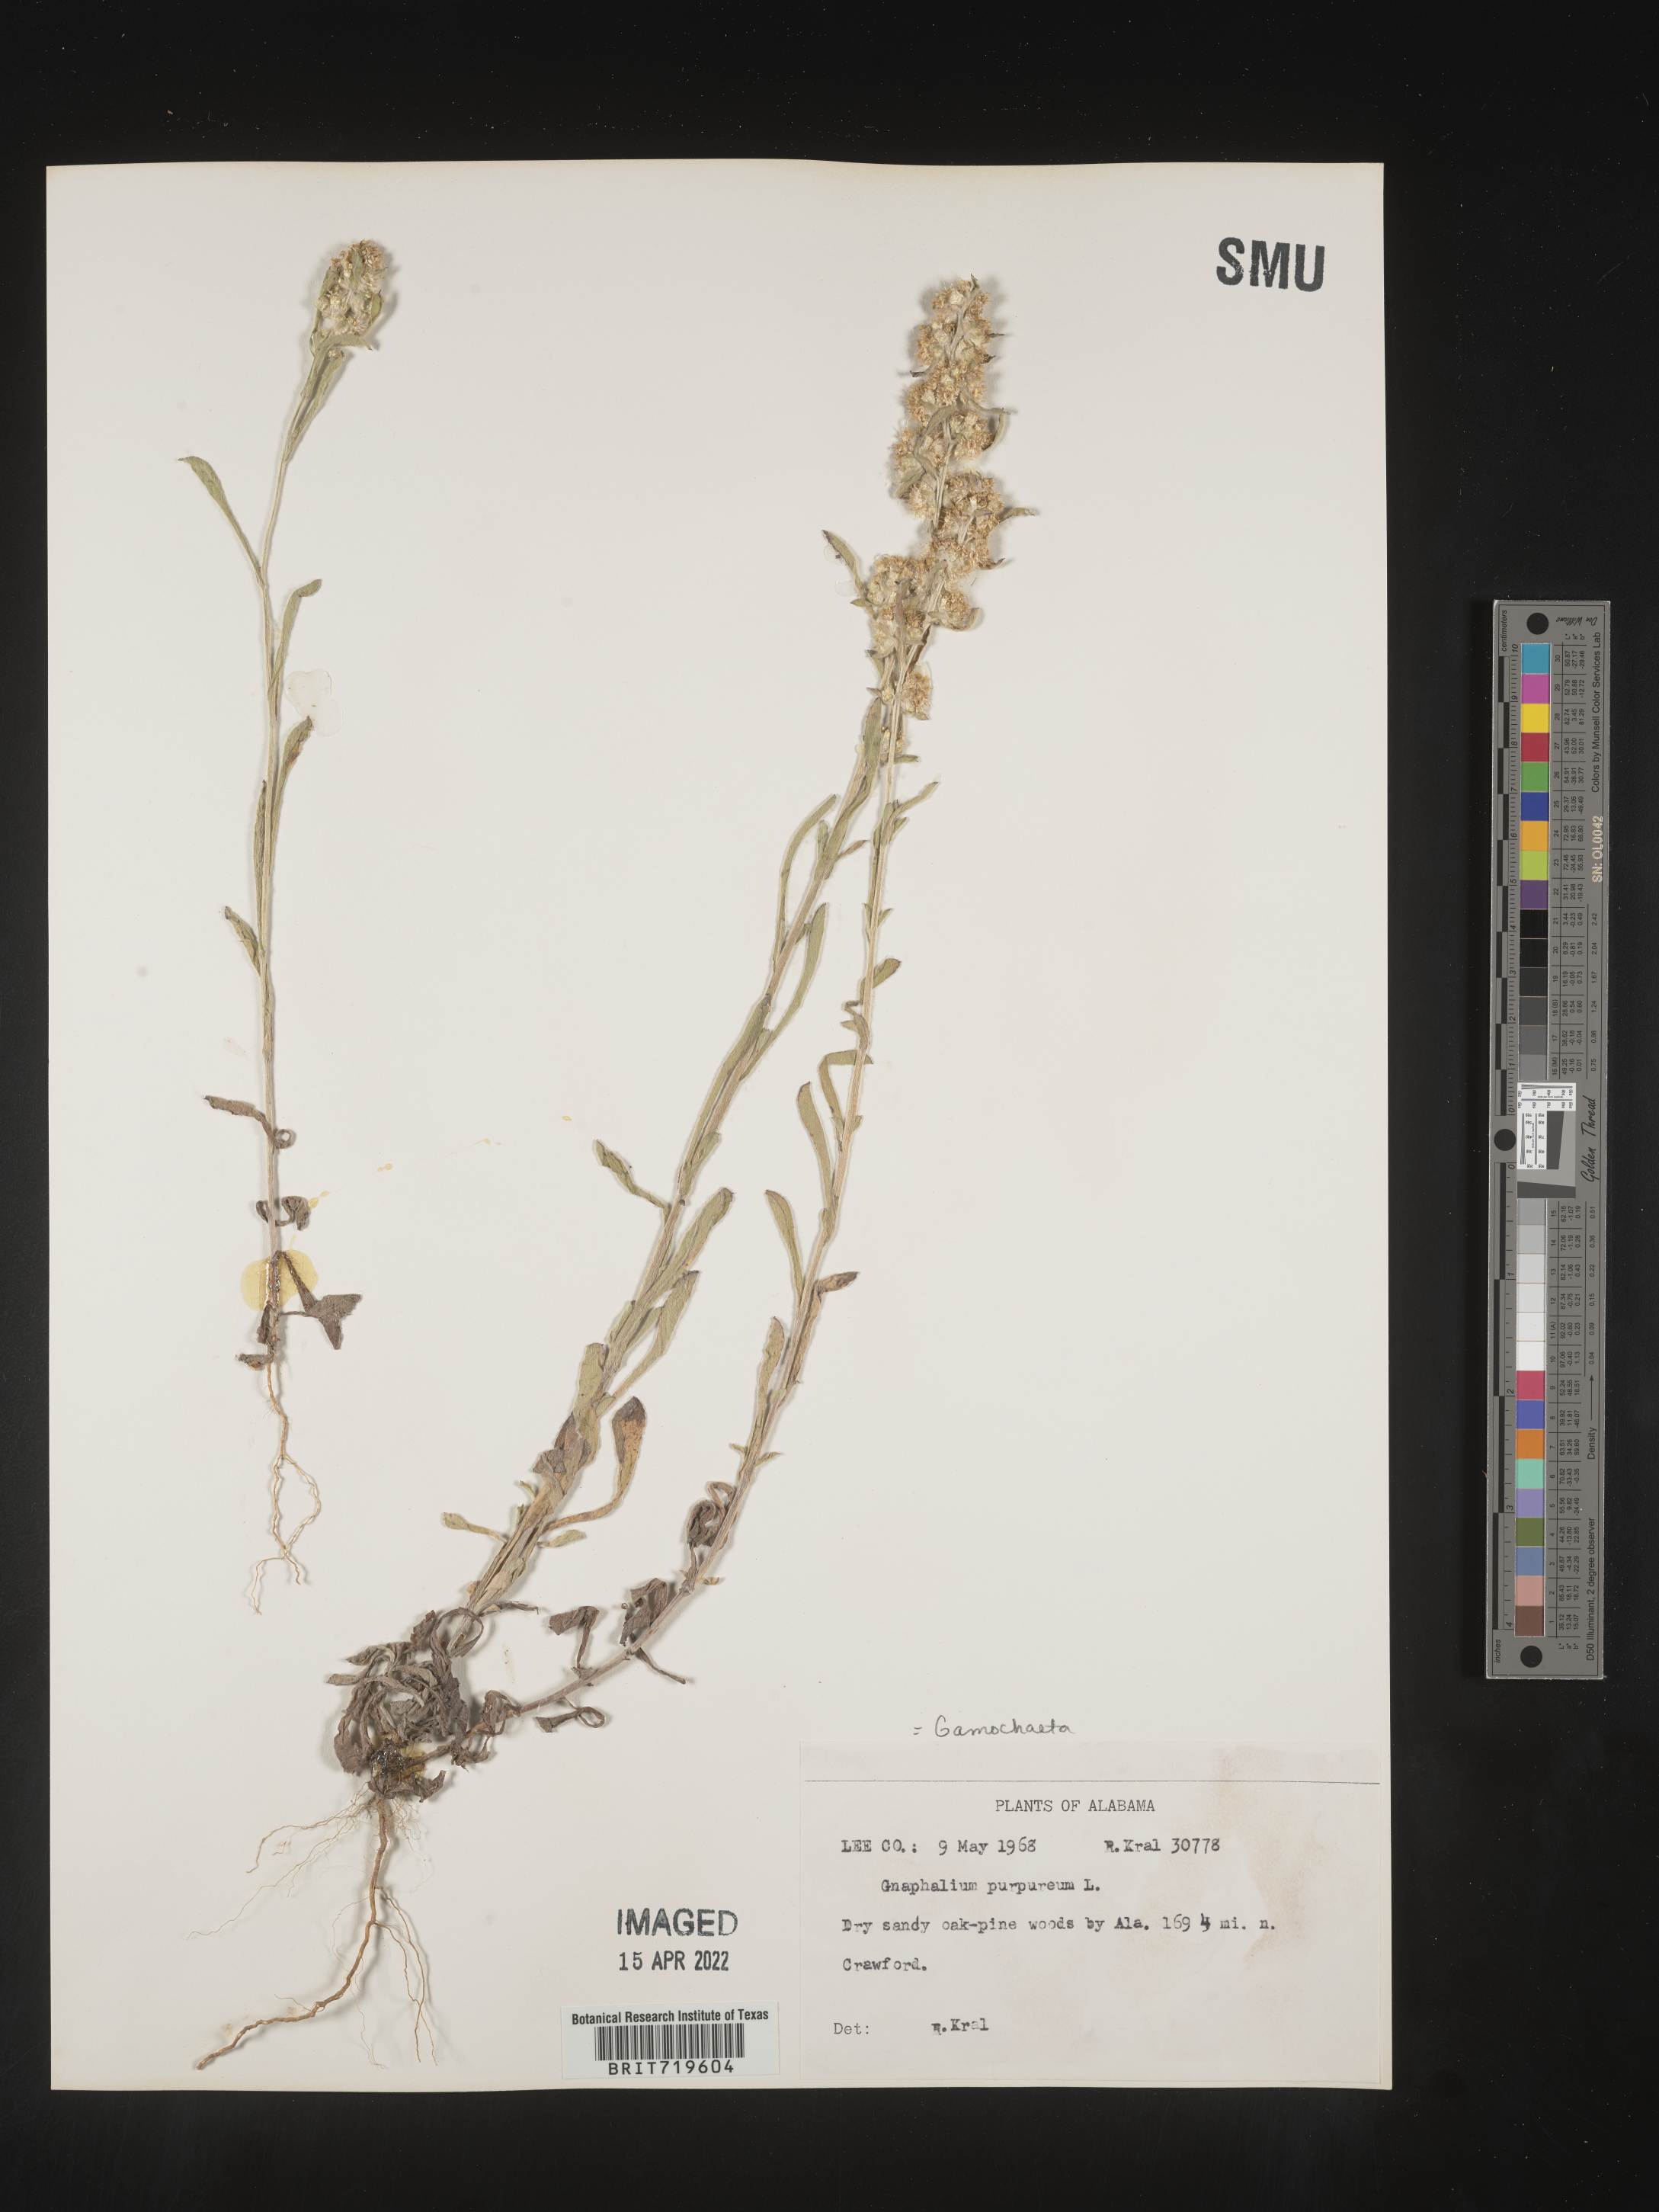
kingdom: Plantae
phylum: Tracheophyta
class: Magnoliopsida
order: Asterales
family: Asteraceae
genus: Gamochaeta
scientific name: Gamochaeta antillana
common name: Delicate everlasting
